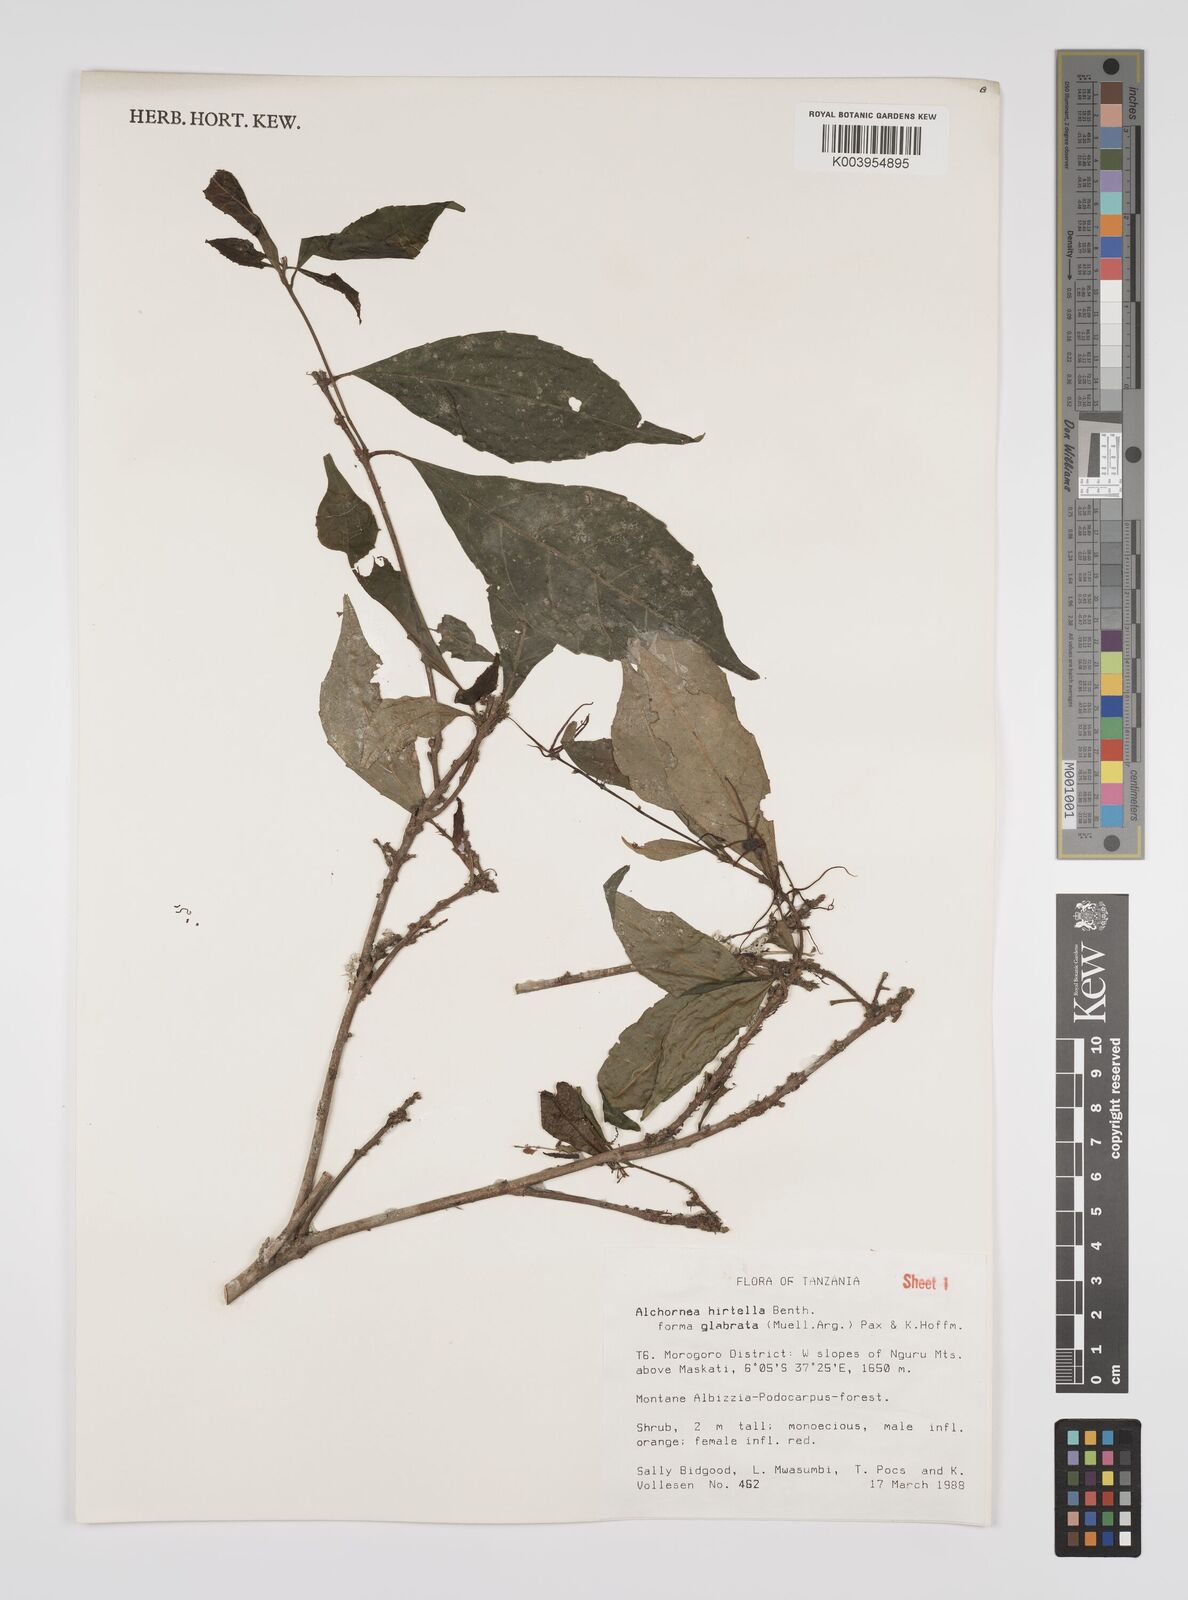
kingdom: Plantae
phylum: Tracheophyta
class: Magnoliopsida
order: Malpighiales
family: Euphorbiaceae
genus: Alchornea
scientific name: Alchornea hirtella
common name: Forest bead-string
